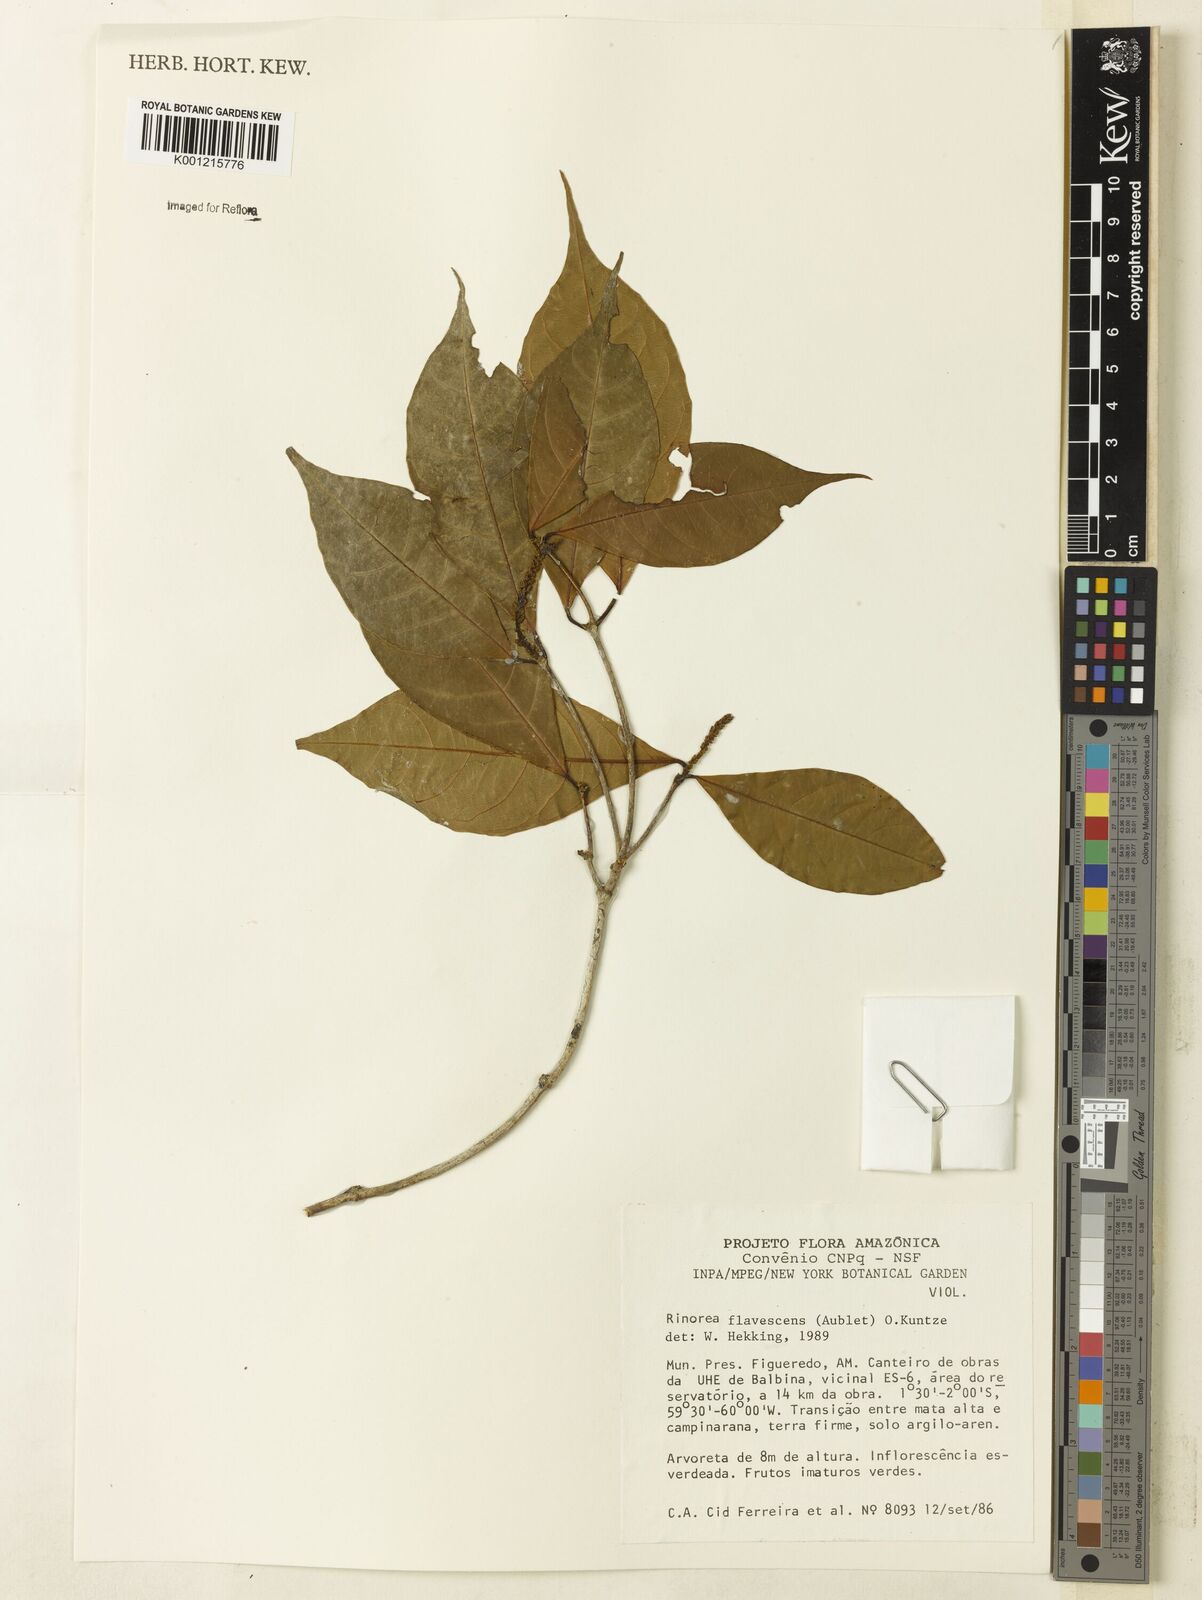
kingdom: Plantae
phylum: Tracheophyta
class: Magnoliopsida
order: Malpighiales
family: Violaceae
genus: Rinorea
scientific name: Rinorea flavescens
